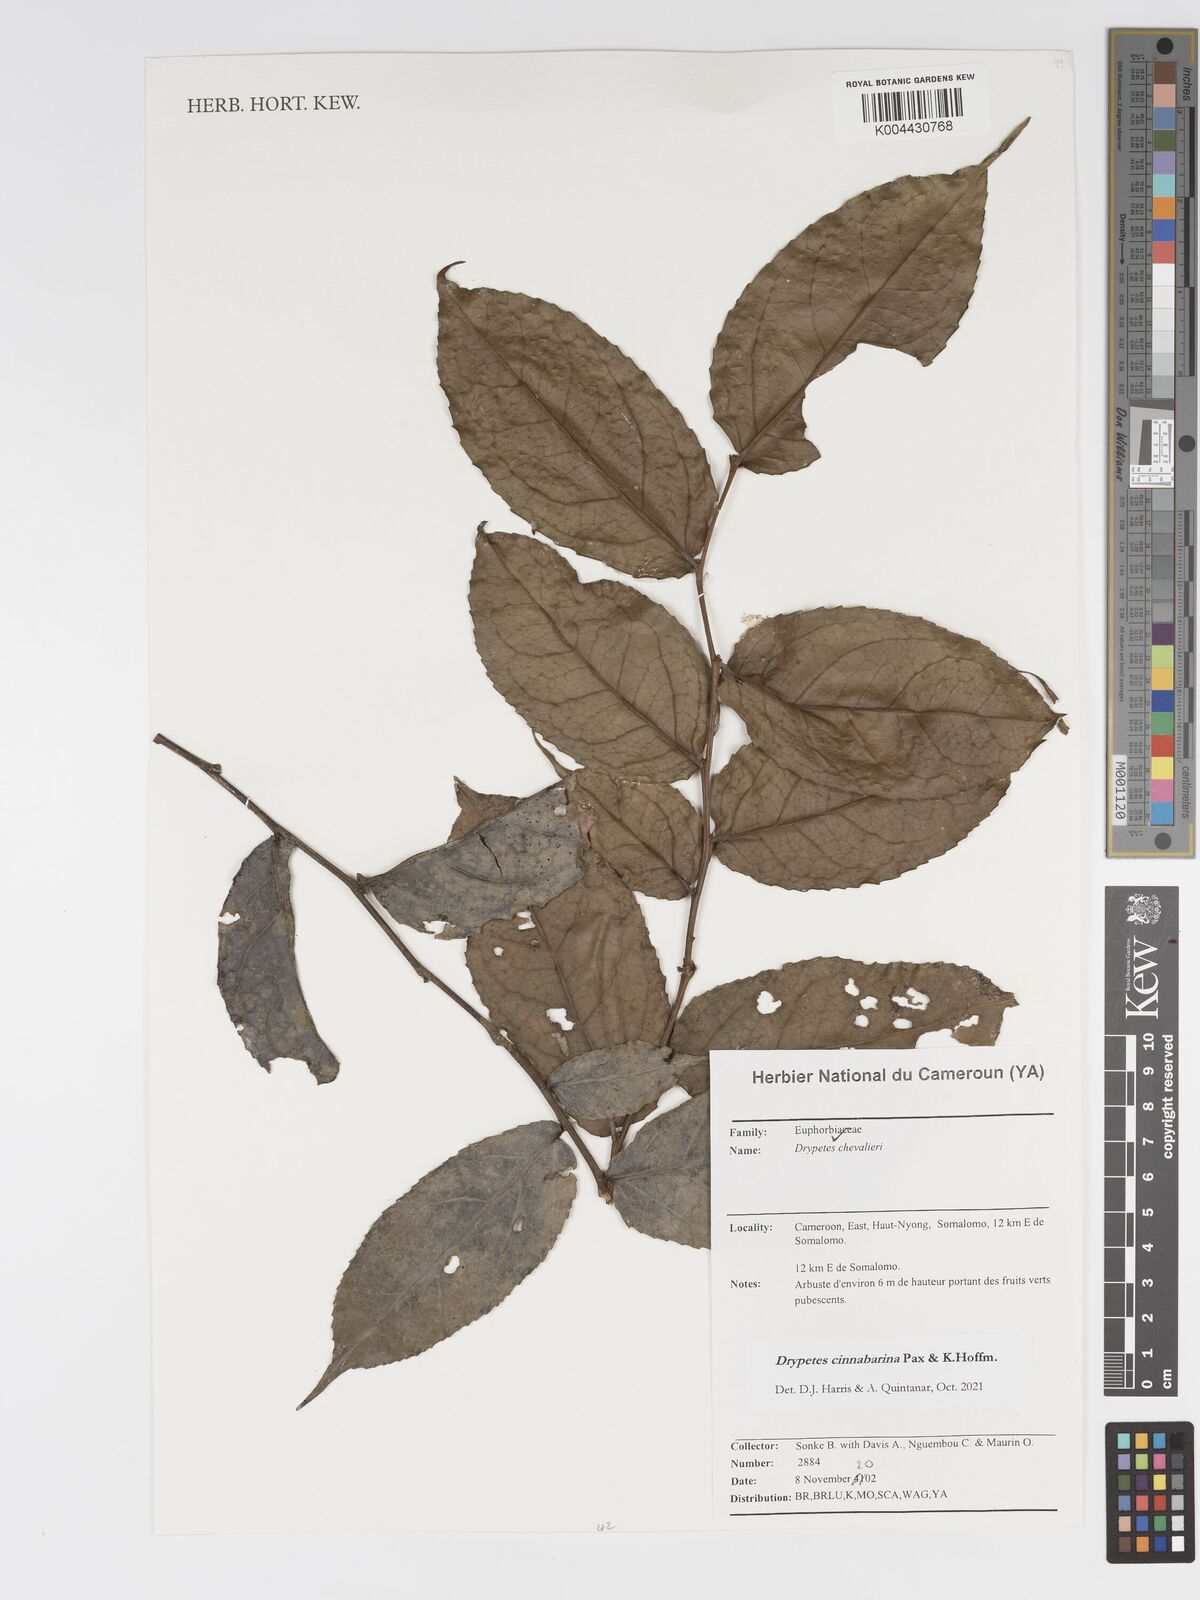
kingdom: Plantae
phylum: Tracheophyta
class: Magnoliopsida
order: Malpighiales
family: Putranjivaceae
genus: Drypetes
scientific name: Drypetes cinnabarina
